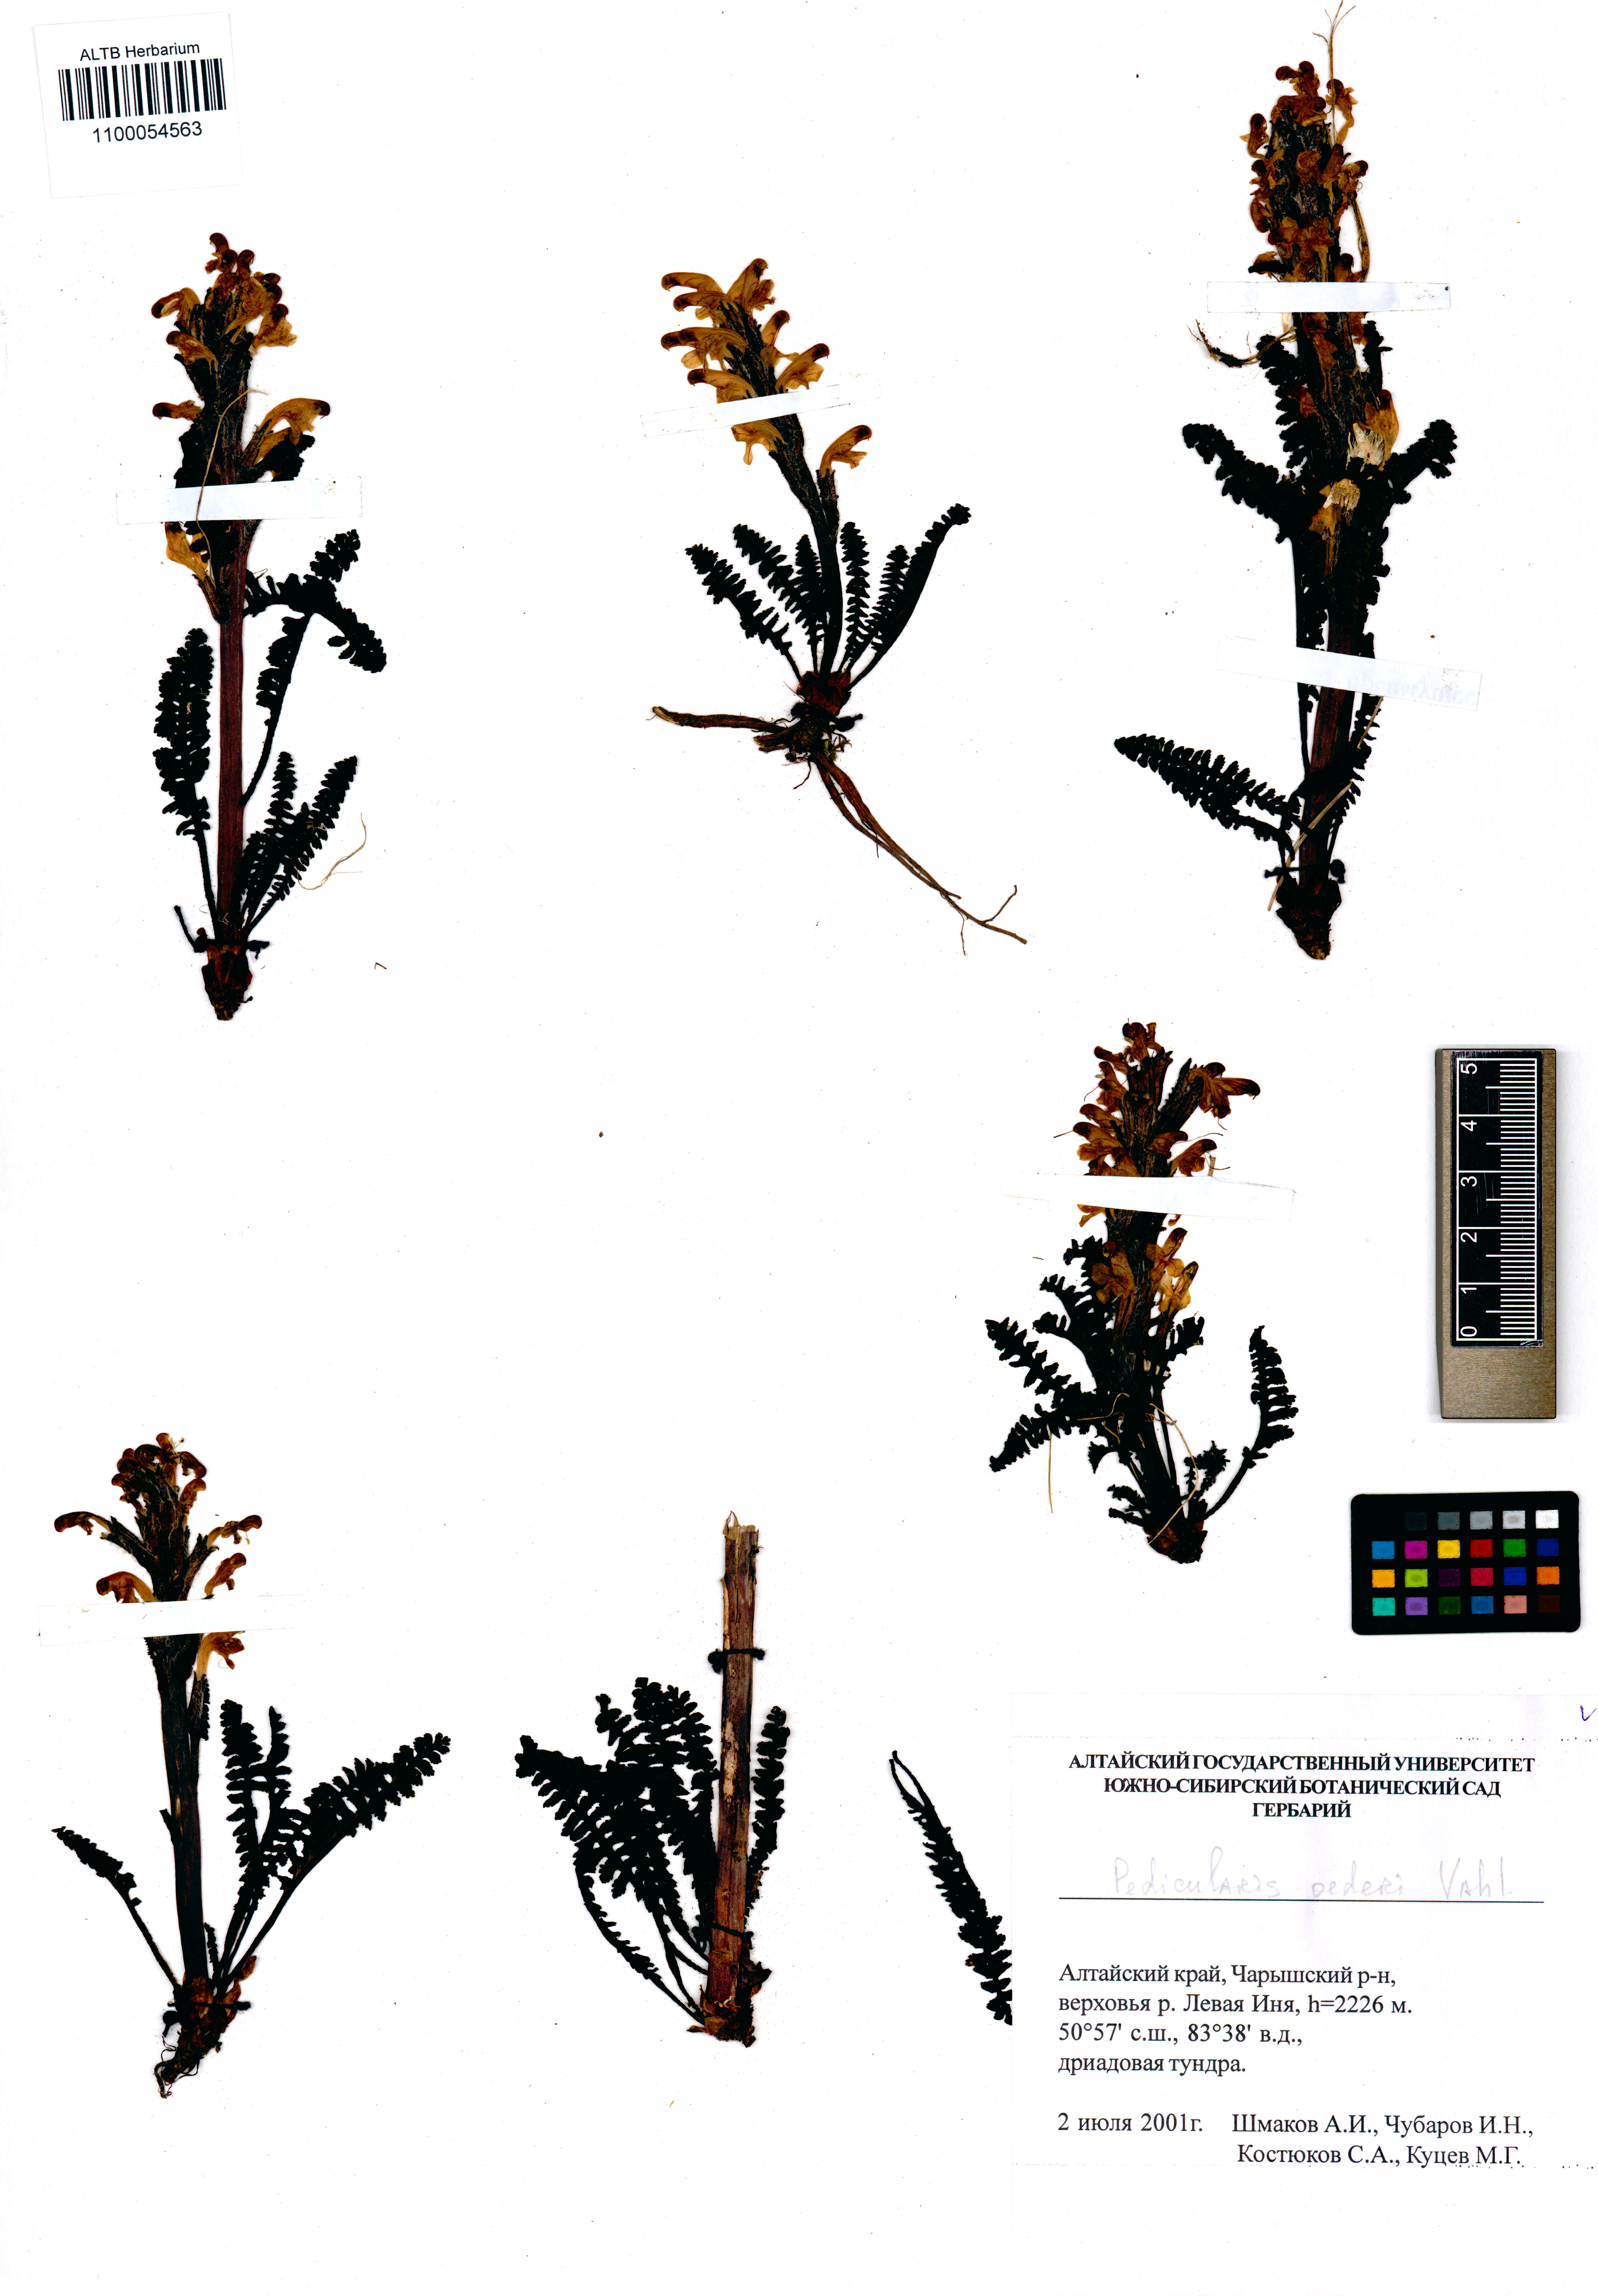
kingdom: Plantae
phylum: Tracheophyta
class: Magnoliopsida
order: Lamiales
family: Orobanchaceae
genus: Pedicularis
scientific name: Pedicularis oederi
